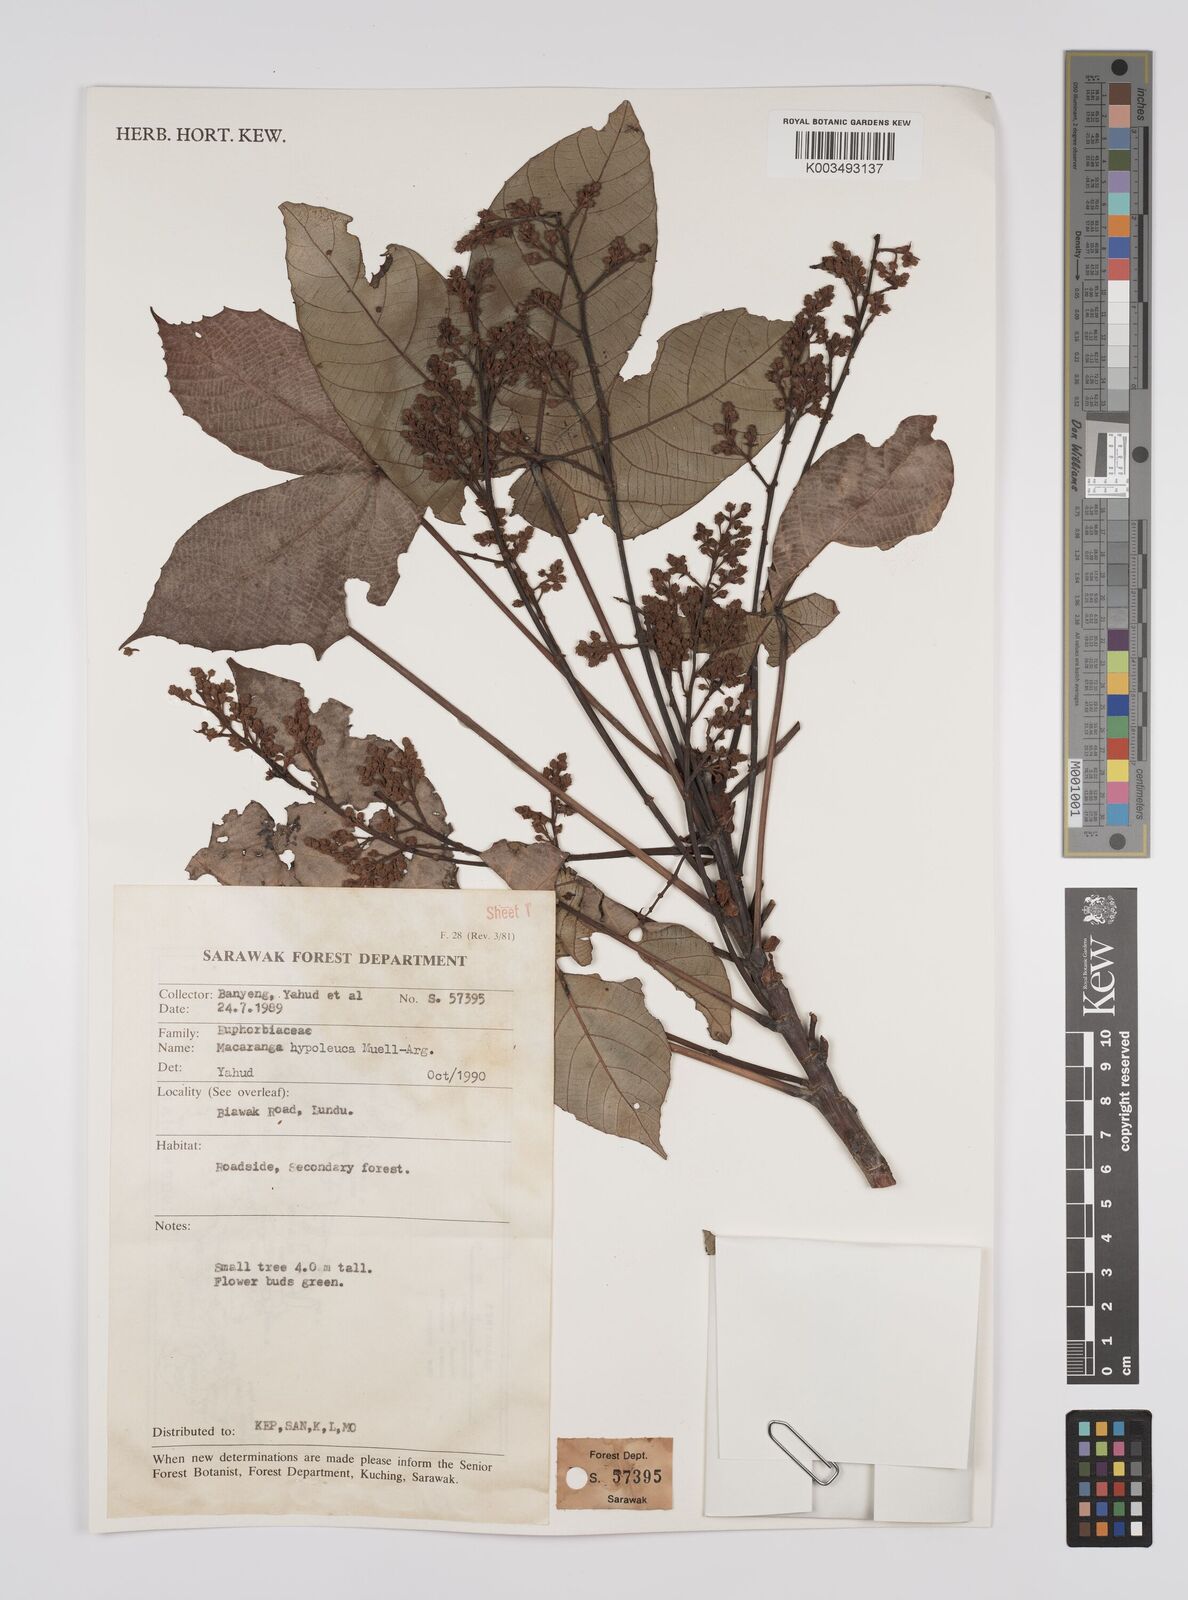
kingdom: Plantae
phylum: Tracheophyta
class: Magnoliopsida
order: Malpighiales
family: Euphorbiaceae
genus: Macaranga
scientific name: Macaranga hypoleuca
